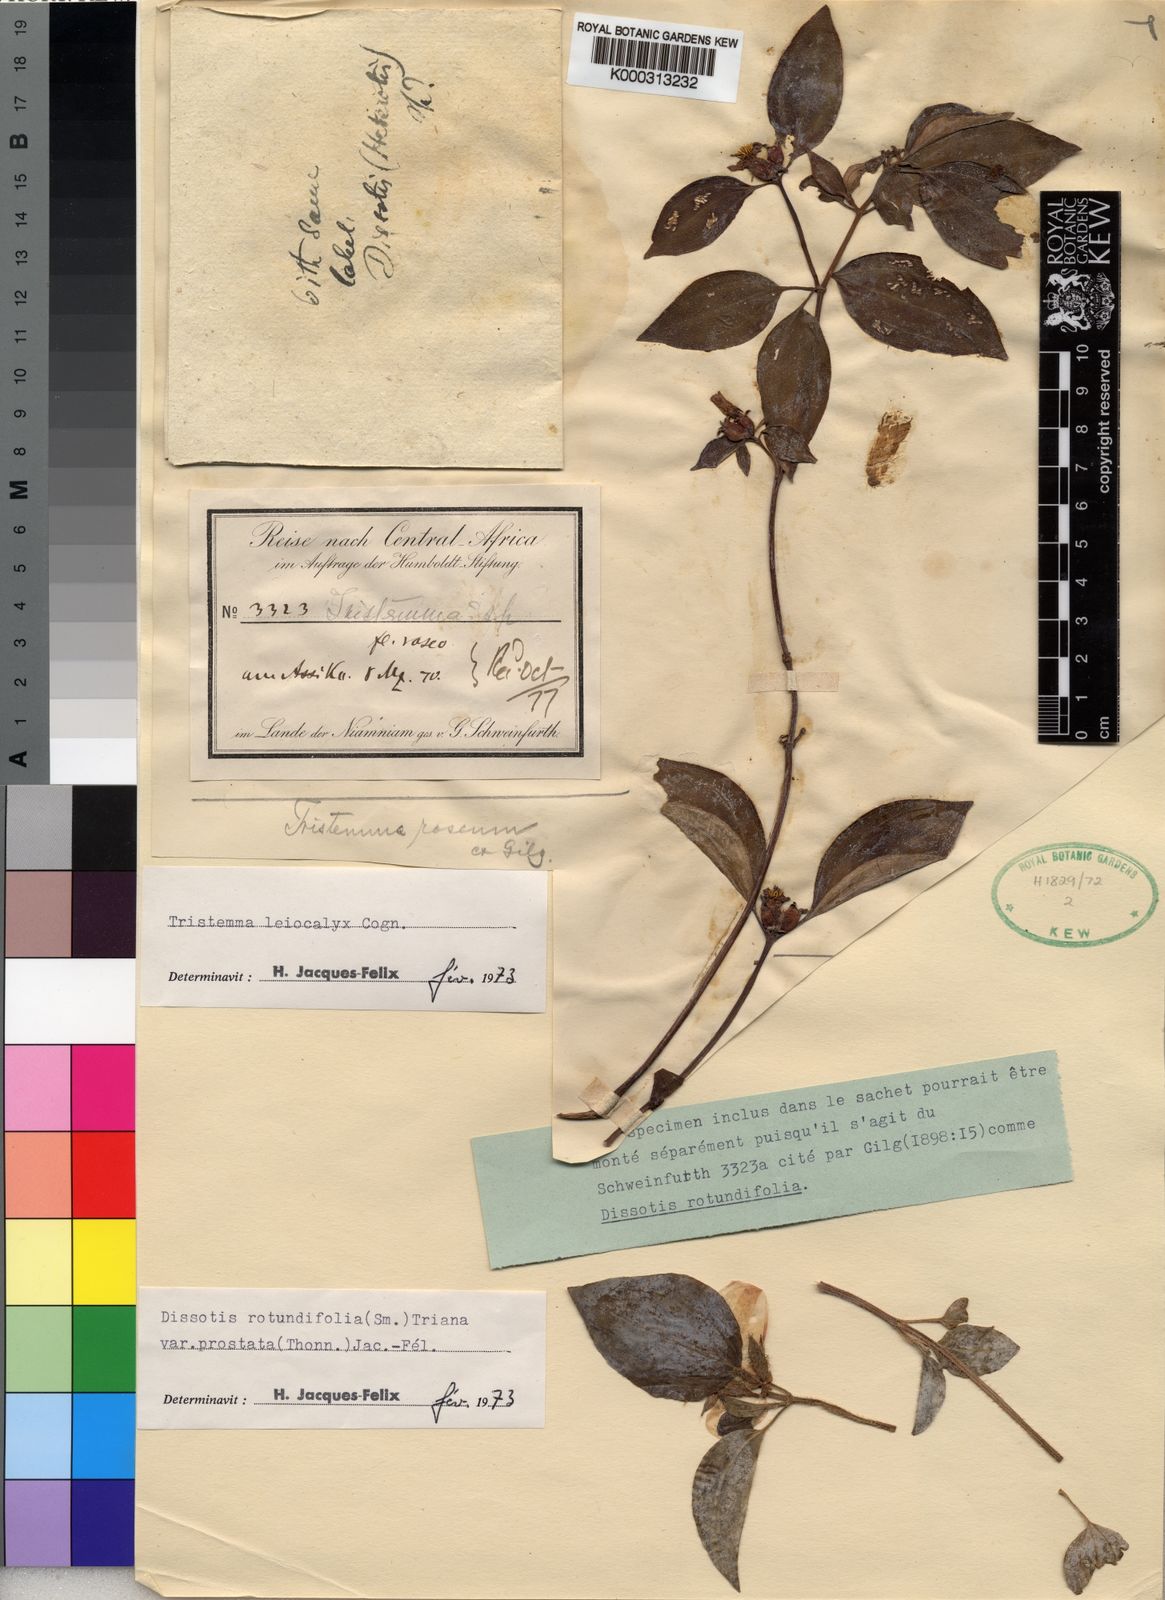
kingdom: Plantae
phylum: Tracheophyta
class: Magnoliopsida
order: Myrtales
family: Melastomataceae
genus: Tristemma
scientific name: Tristemma leiocalyx
